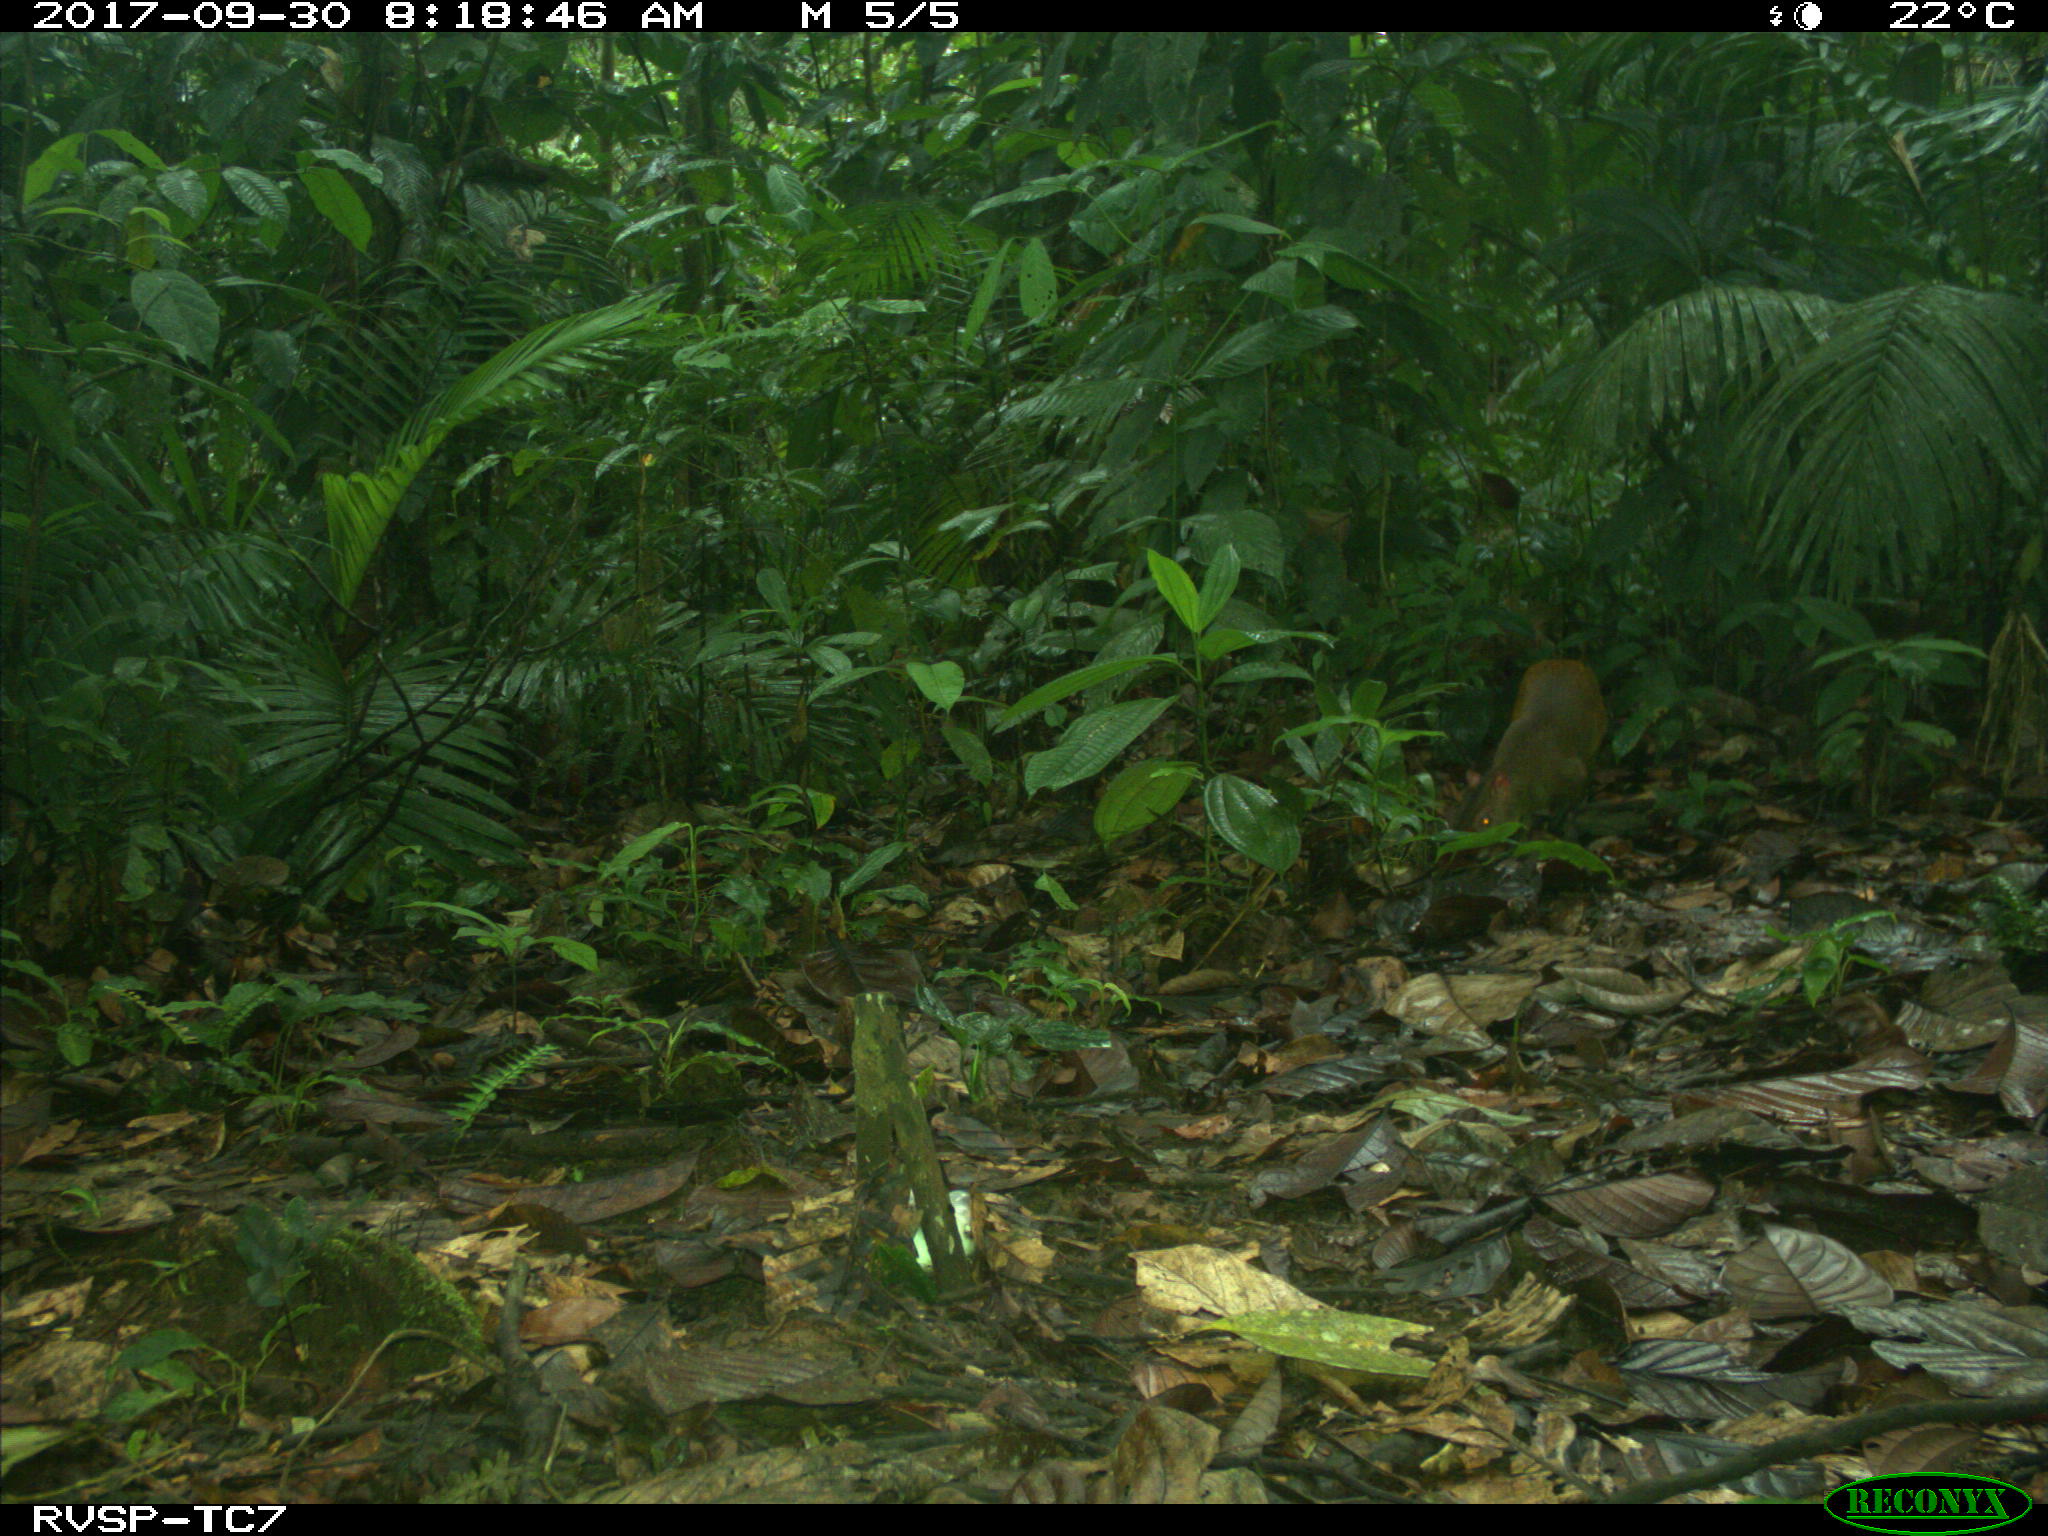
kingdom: Animalia
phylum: Chordata
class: Mammalia
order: Rodentia
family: Dasyproctidae
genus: Dasyprocta
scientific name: Dasyprocta punctata
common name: Central american agouti
